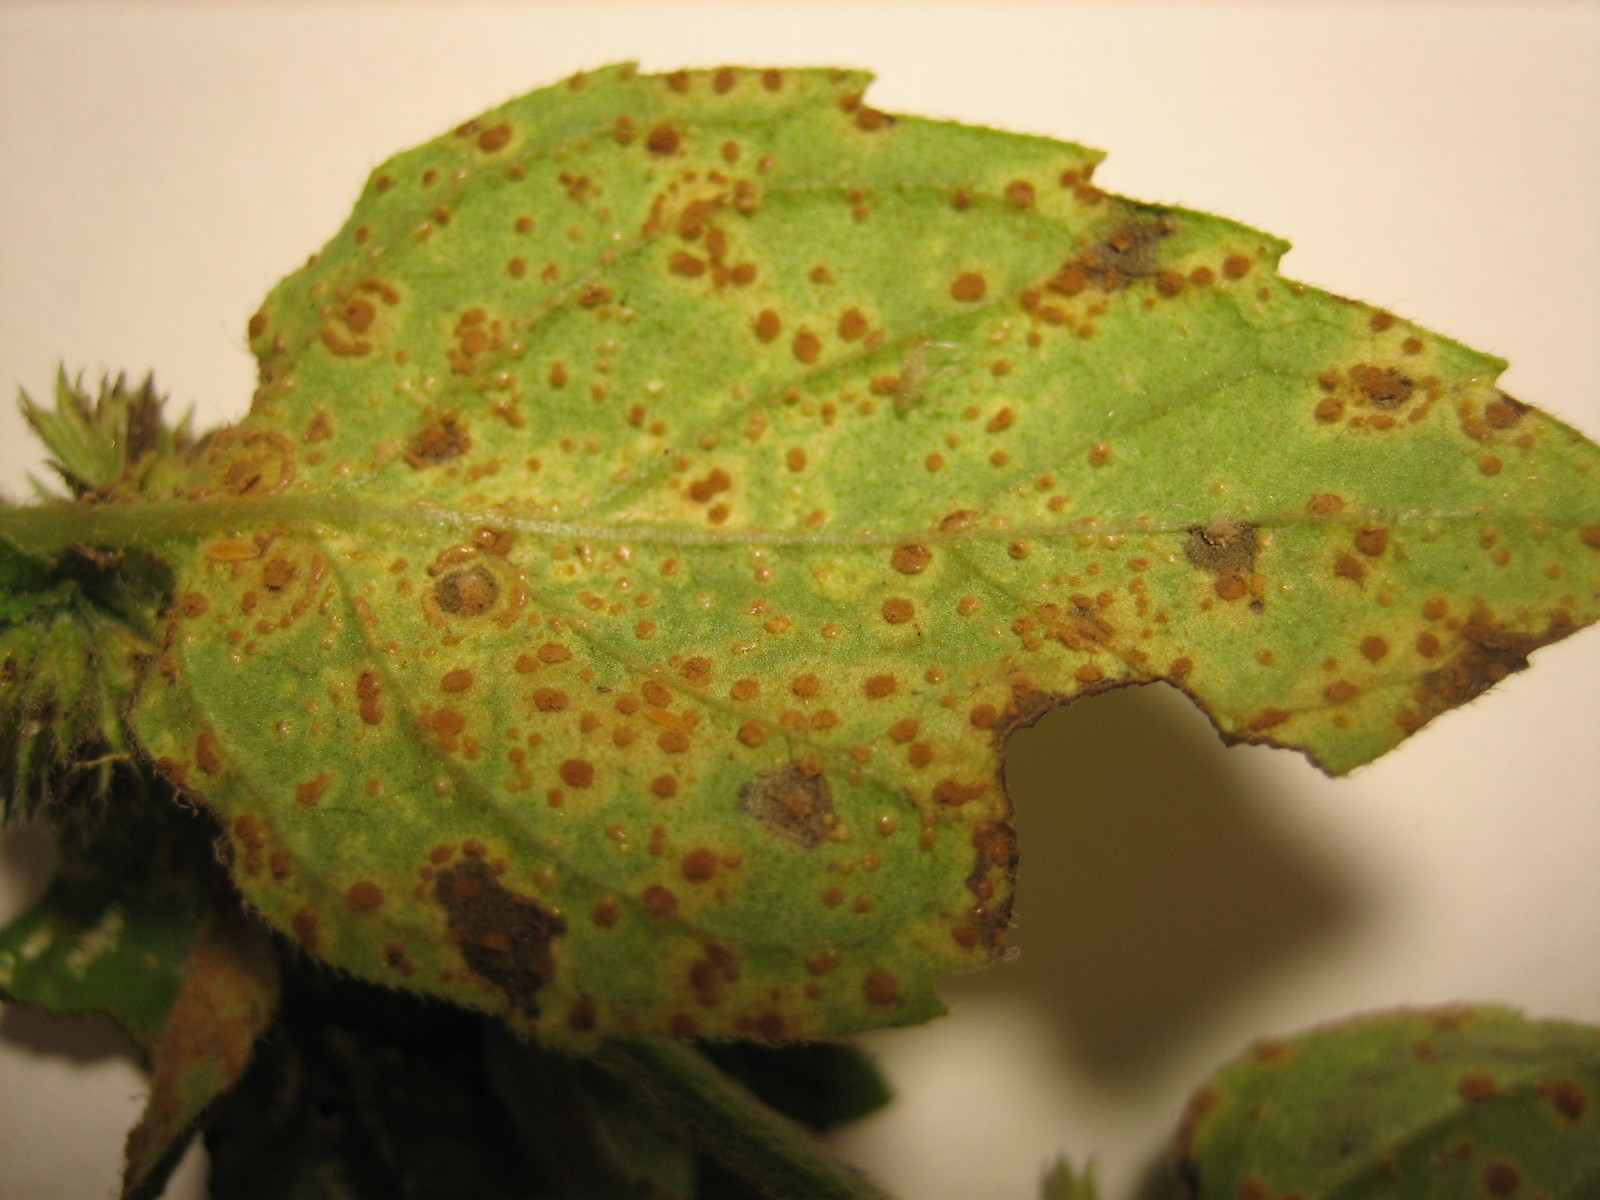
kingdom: Fungi
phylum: Basidiomycota
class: Pucciniomycetes
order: Pucciniales
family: Pucciniaceae
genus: Puccinia
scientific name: Puccinia menthae
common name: Mint rust
